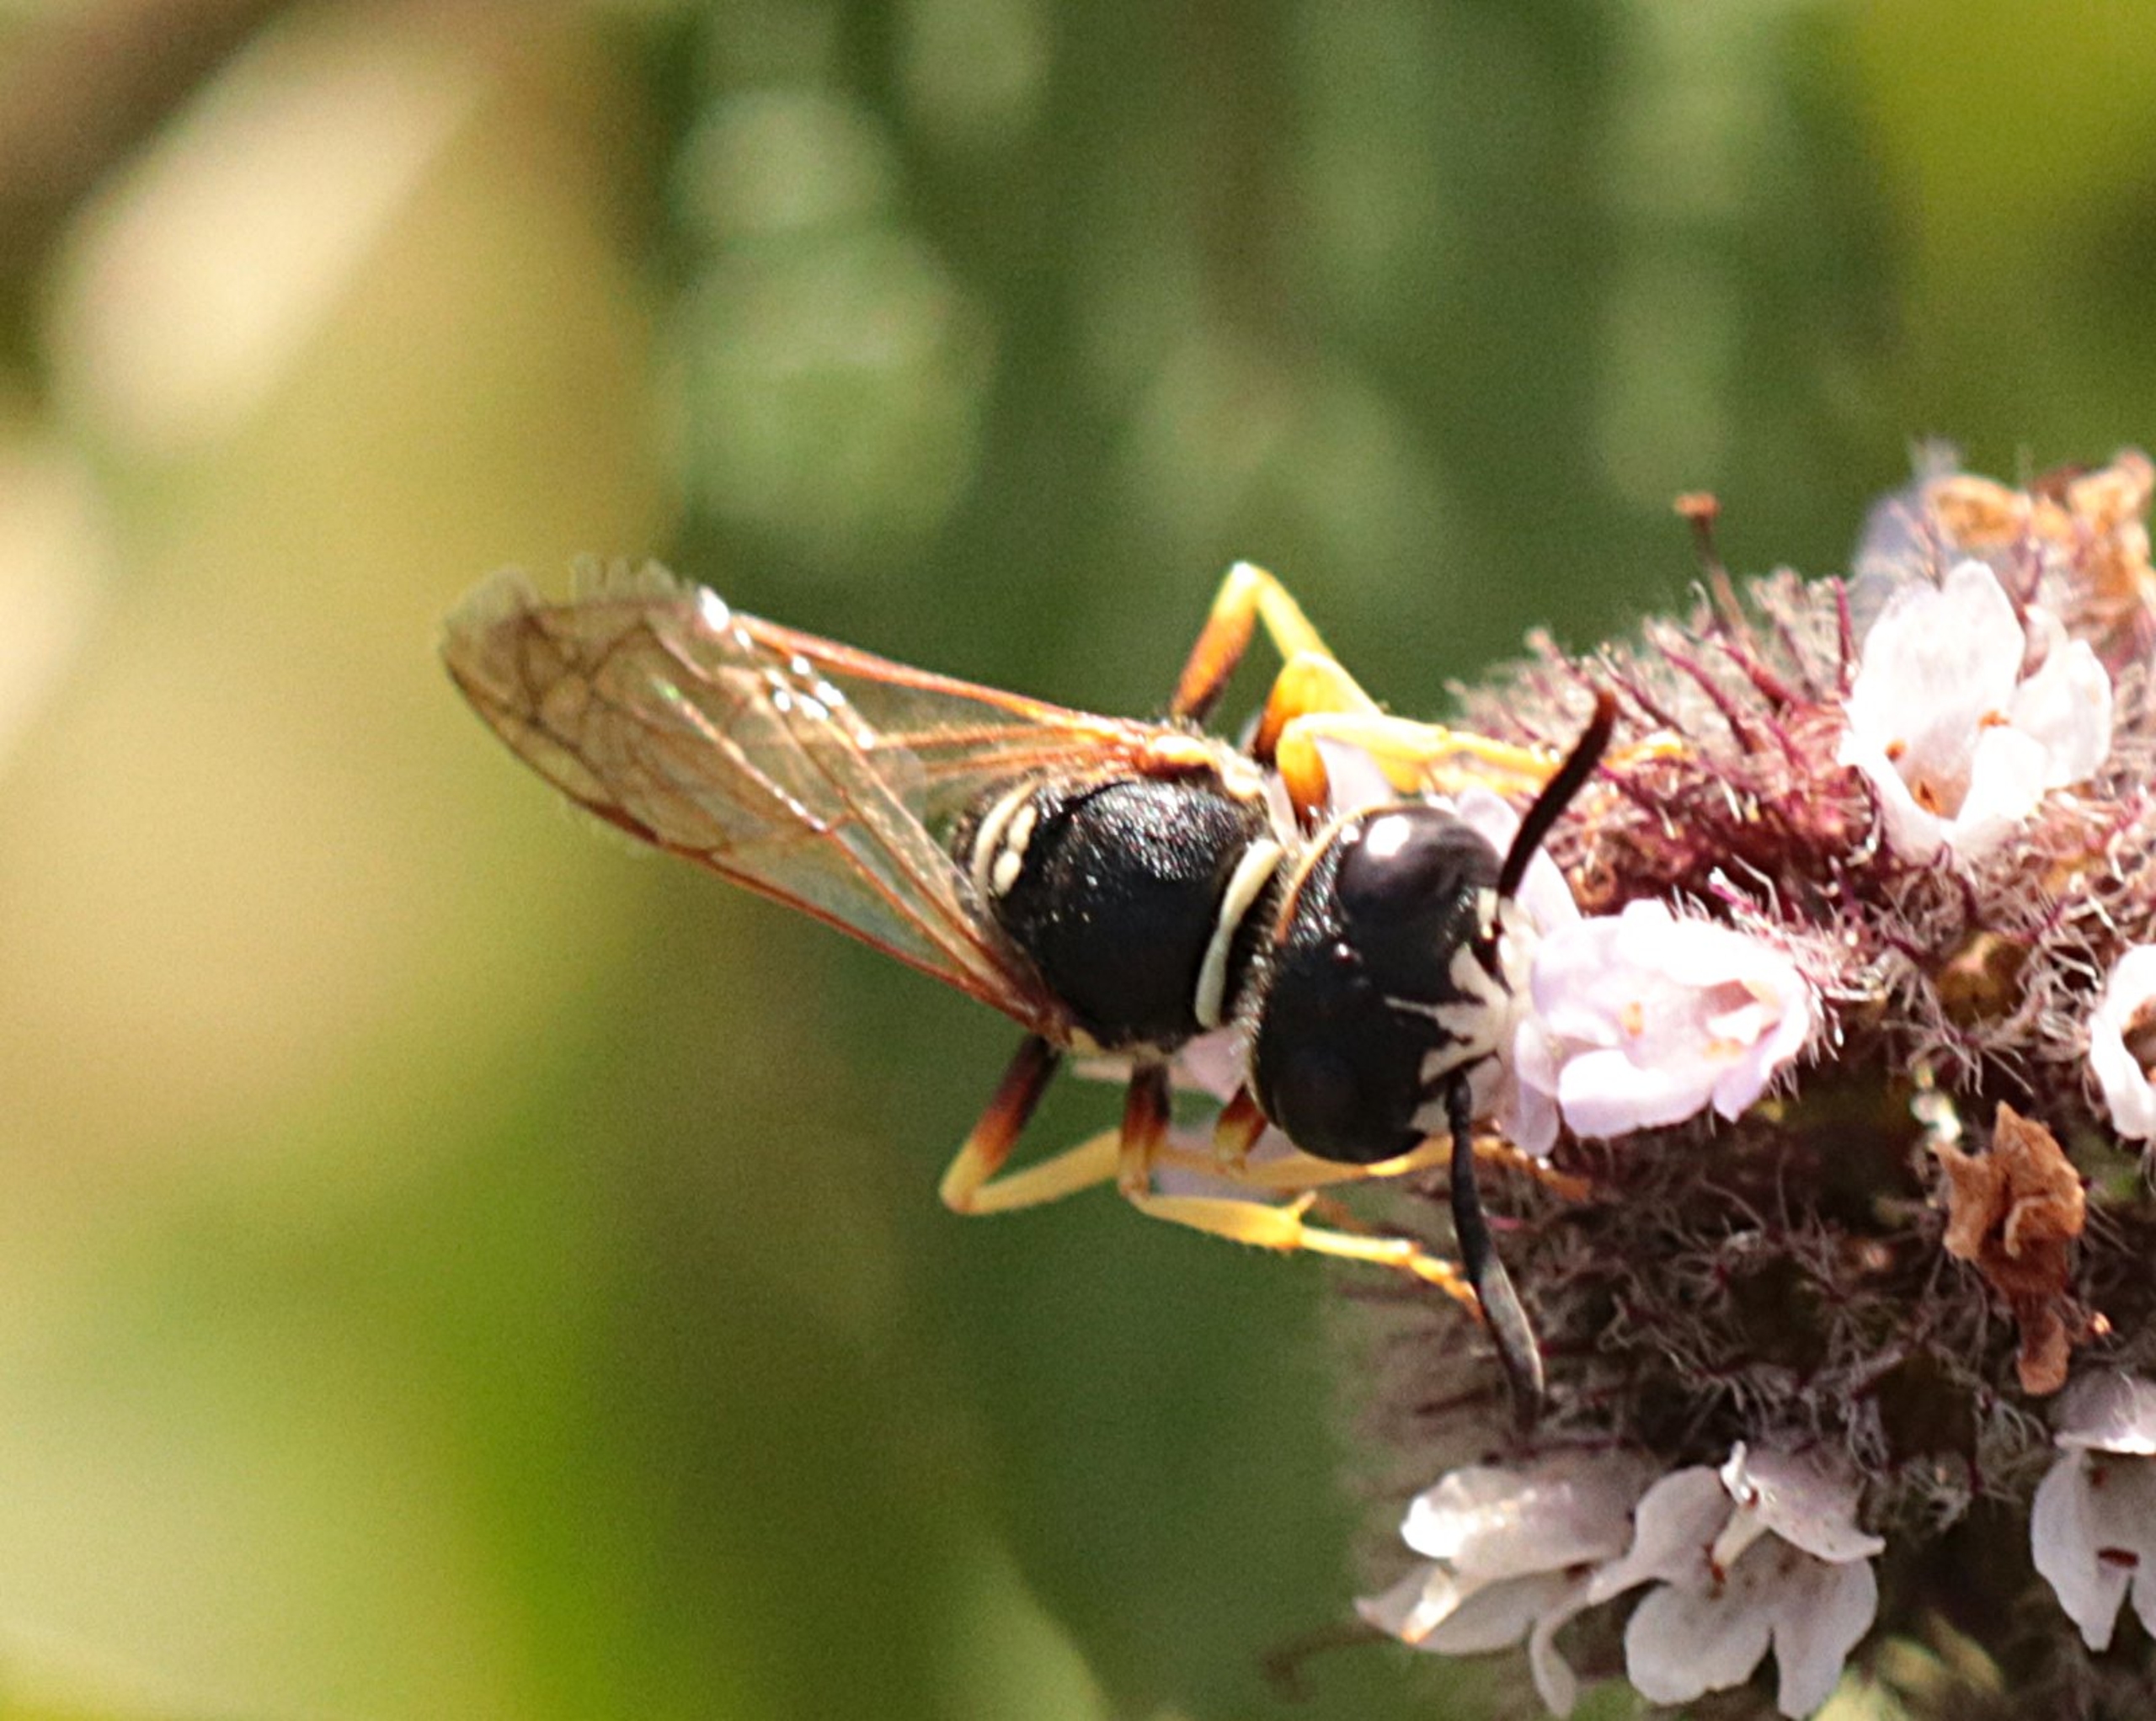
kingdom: Animalia
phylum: Arthropoda
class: Insecta
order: Hymenoptera
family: Crabronidae
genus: Philanthus
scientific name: Philanthus triangulum
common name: Biulv
